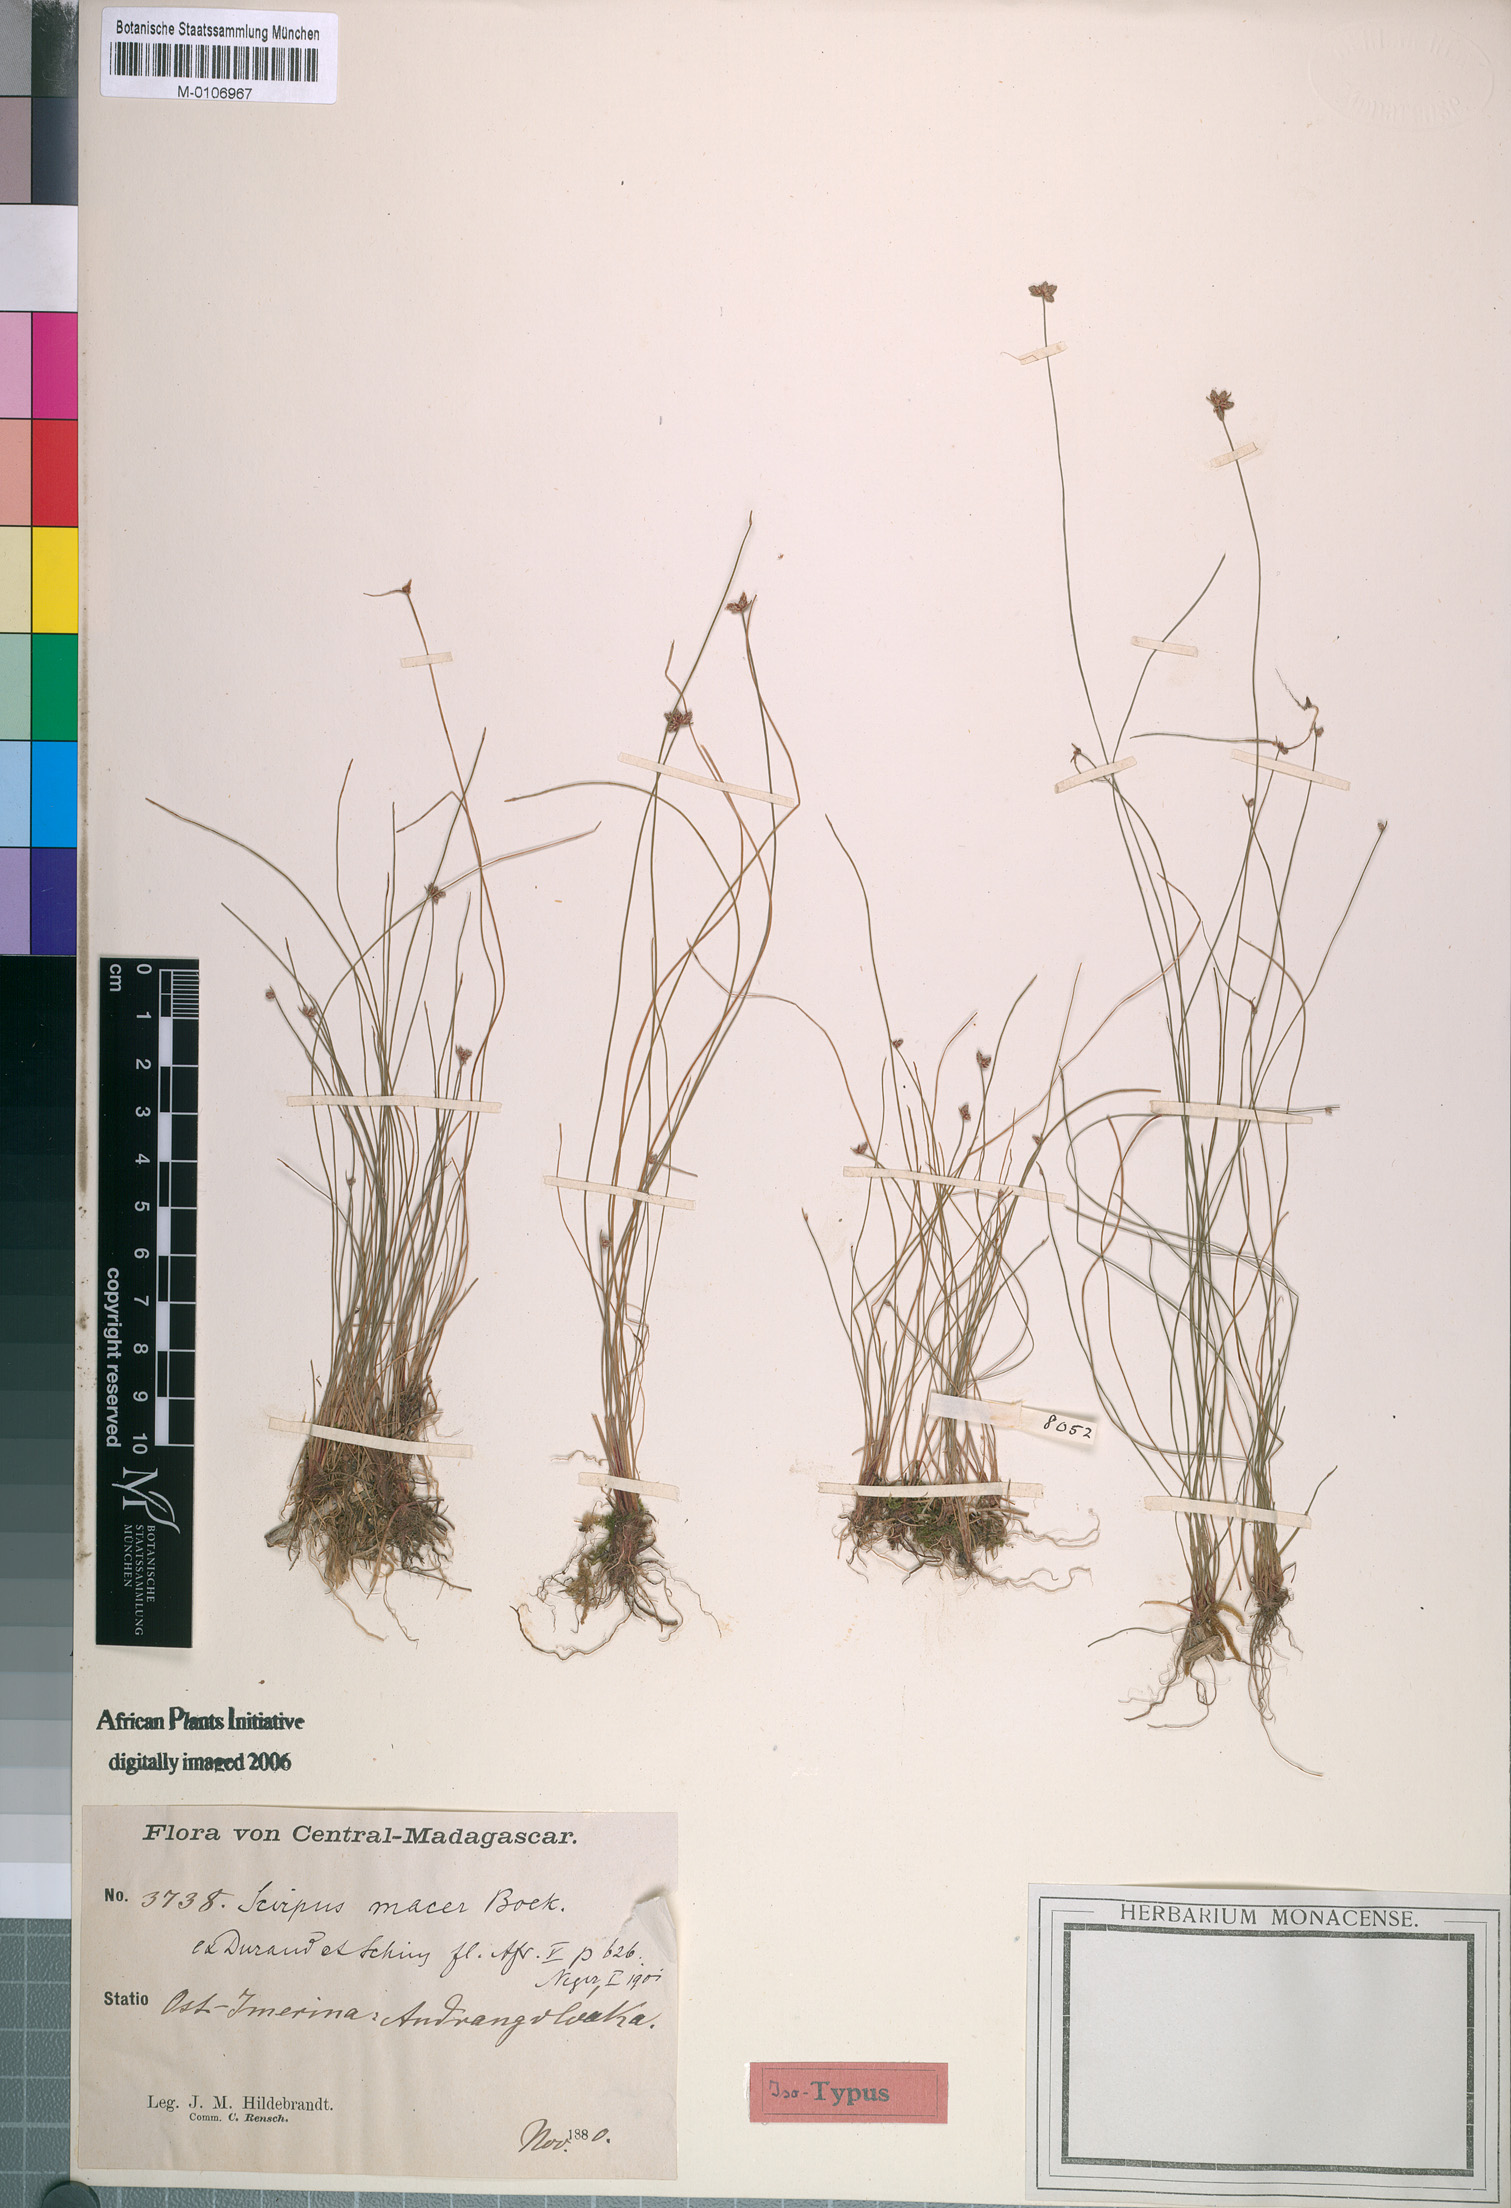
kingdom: Plantae
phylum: Tracheophyta
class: Liliopsida
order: Poales
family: Cyperaceae
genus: Isolepis
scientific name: Isolepis costata
